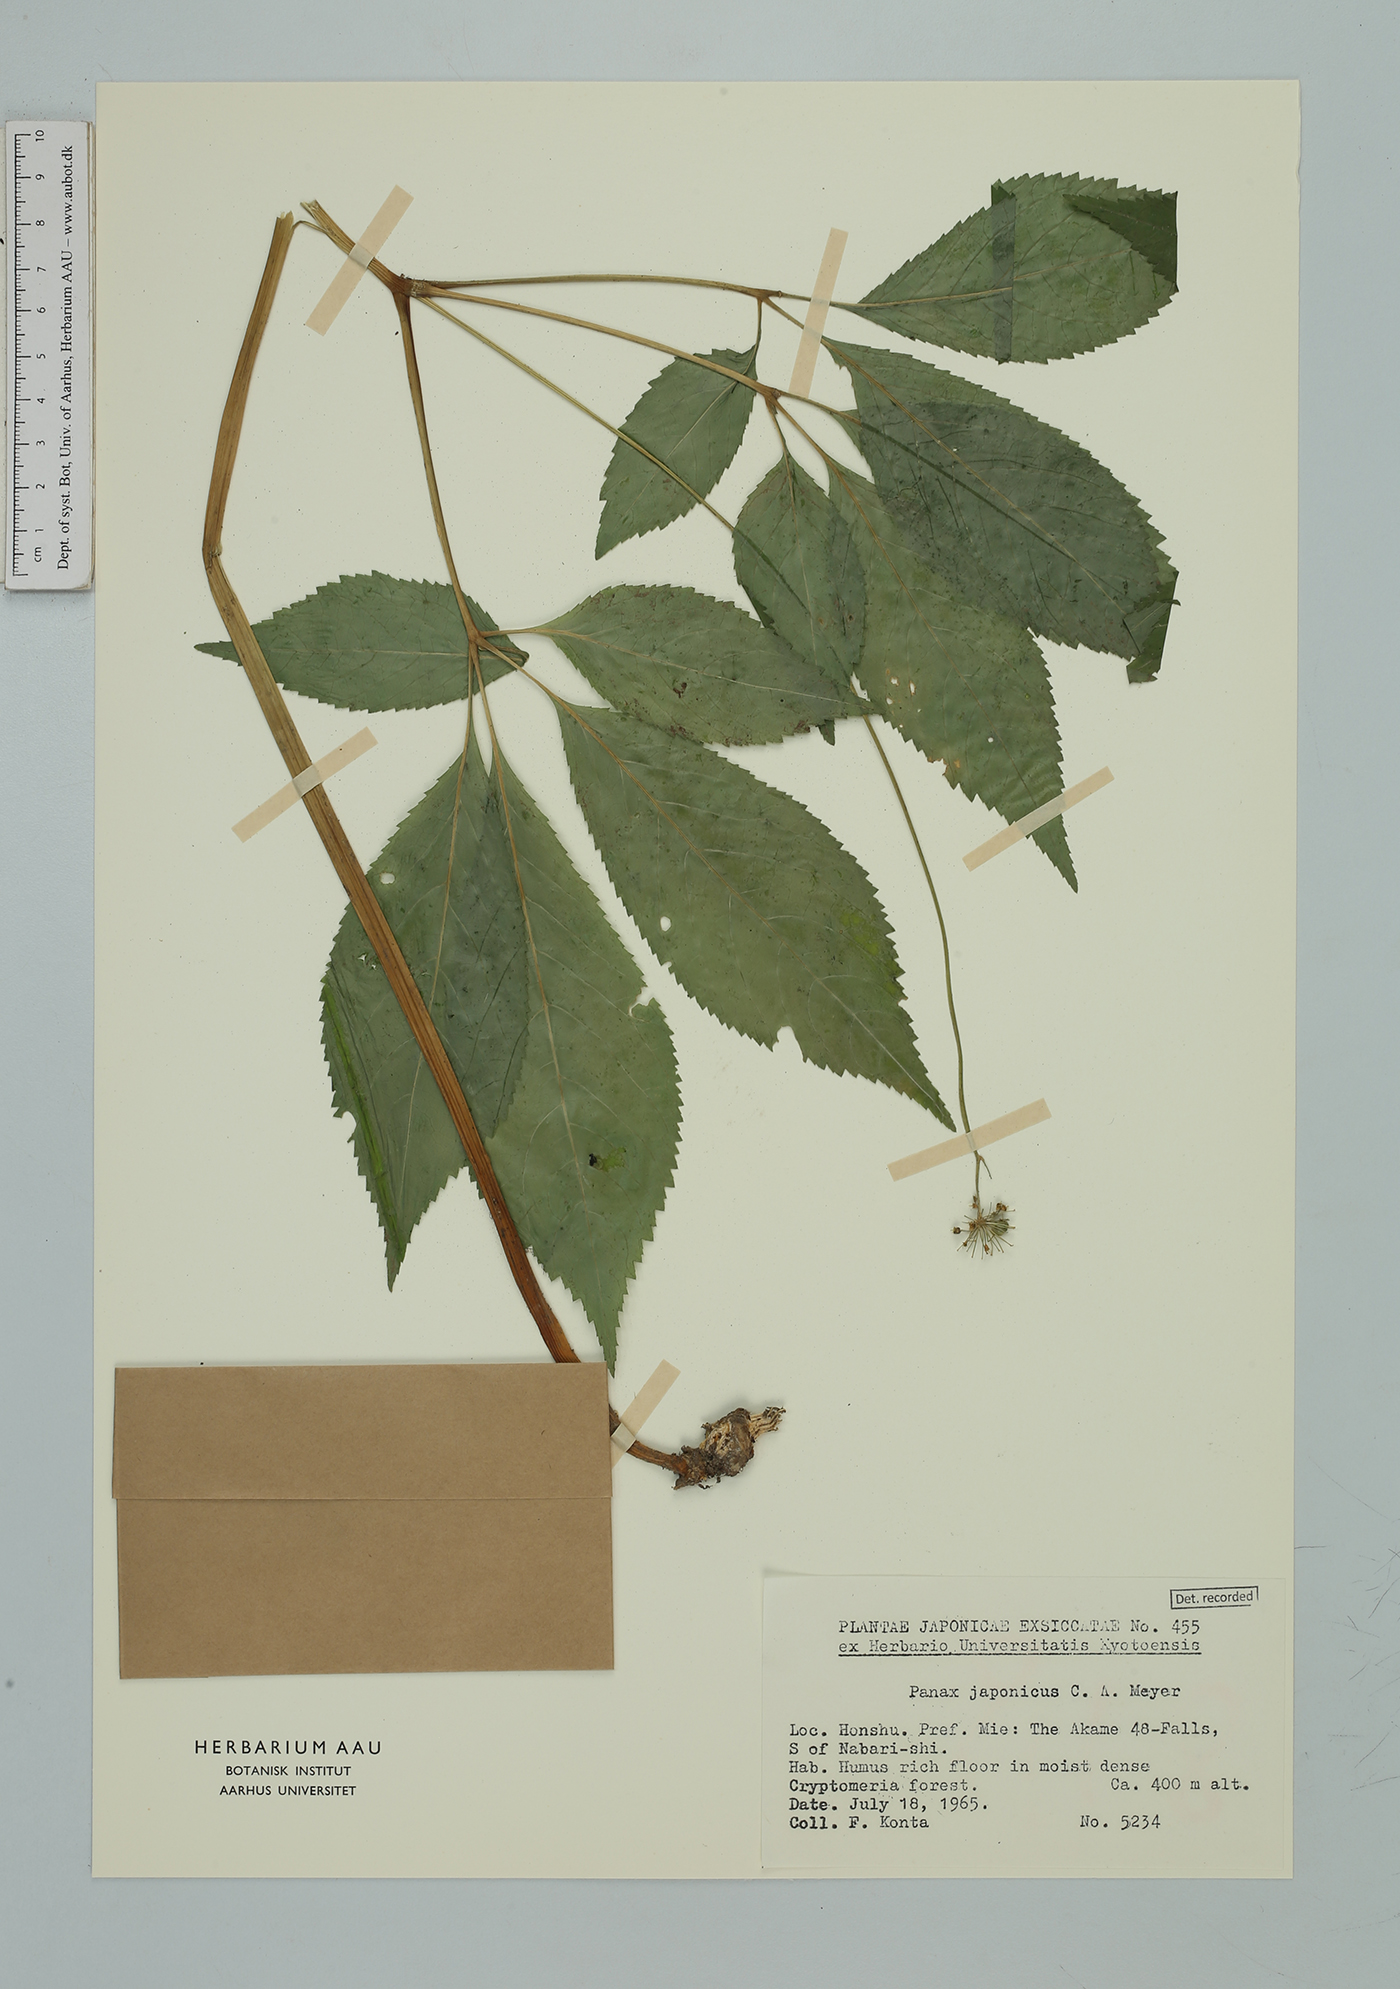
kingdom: Plantae
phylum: Tracheophyta
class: Magnoliopsida
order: Apiales
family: Araliaceae
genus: Panax
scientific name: Panax japonicus
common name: Japanese ginseng
